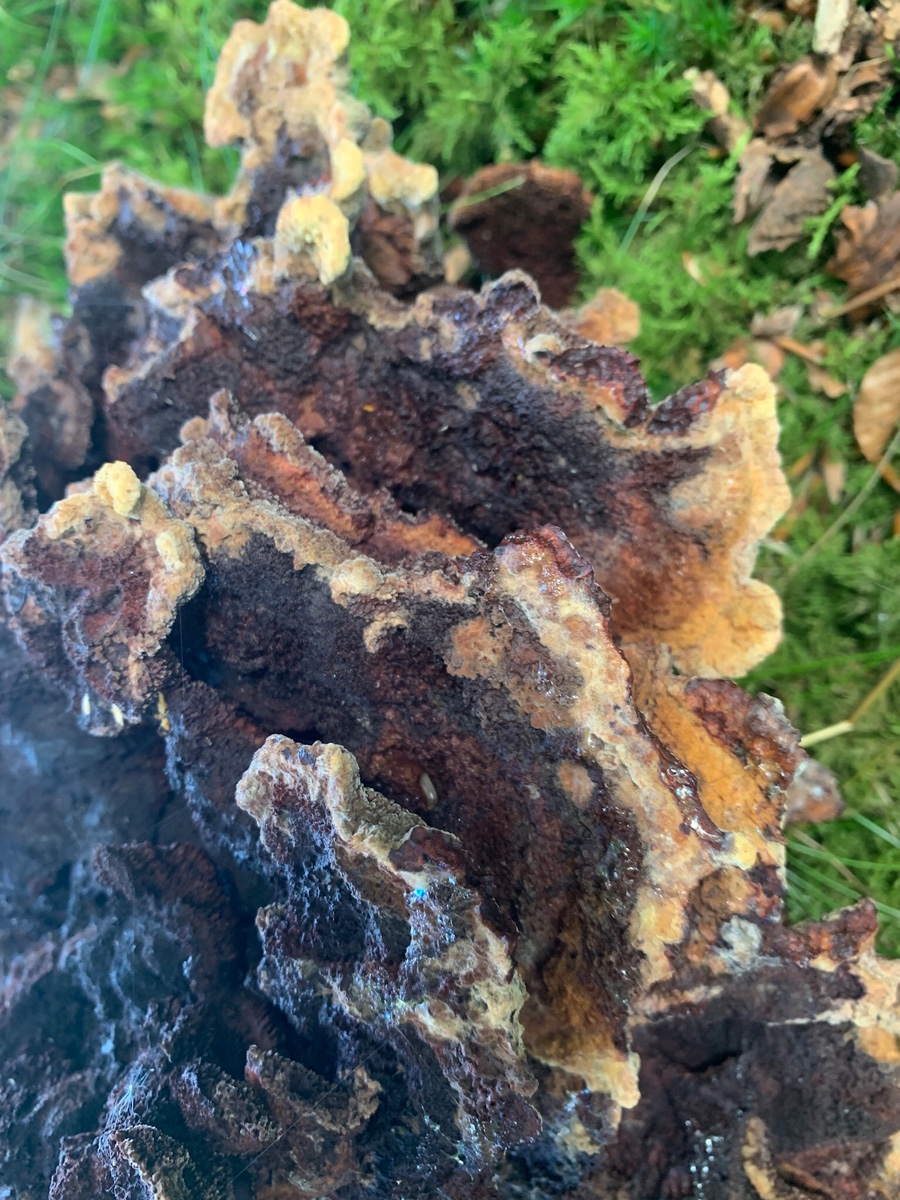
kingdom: Fungi
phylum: Basidiomycota
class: Agaricomycetes
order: Polyporales
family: Laetiporaceae
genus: Phaeolus
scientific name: Phaeolus schweinitzii
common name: brunporesvamp
